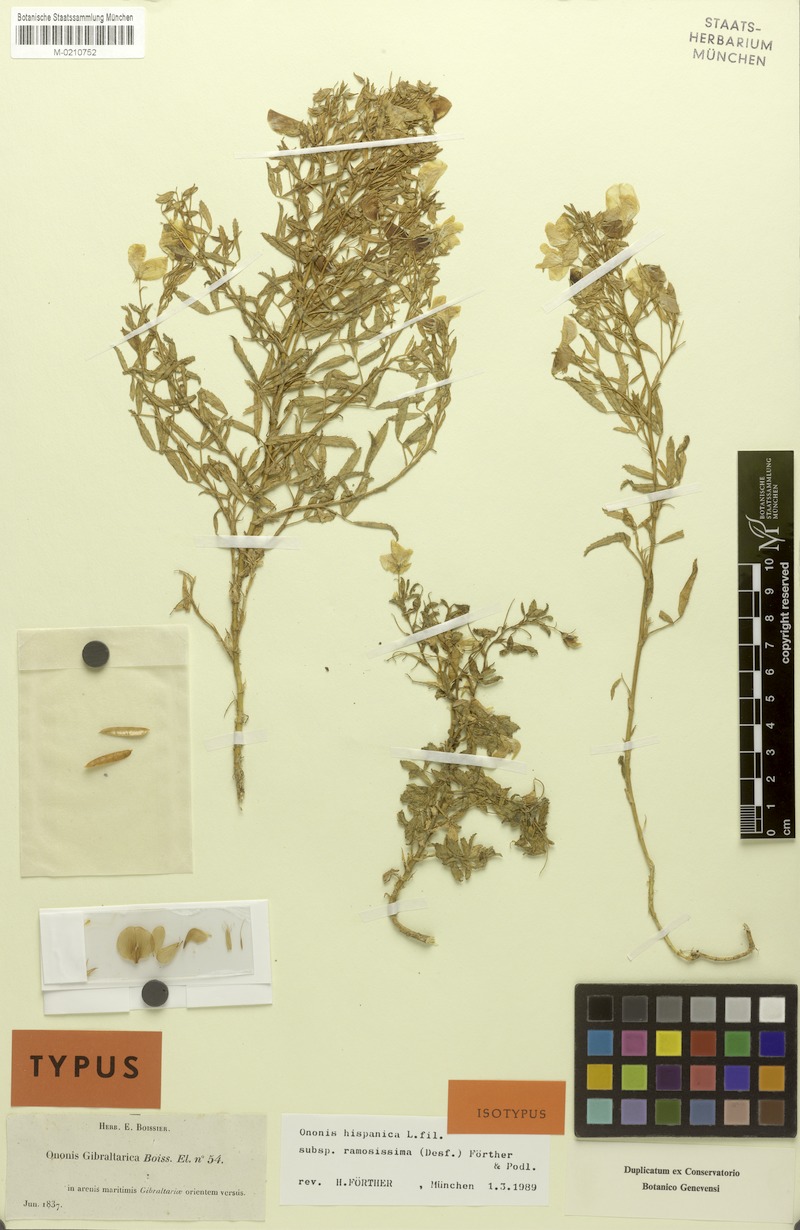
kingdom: Plantae
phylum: Tracheophyta
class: Magnoliopsida
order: Fabales
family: Fabaceae
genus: Ononis
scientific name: Ononis ramosissima
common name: Bush restharrow
